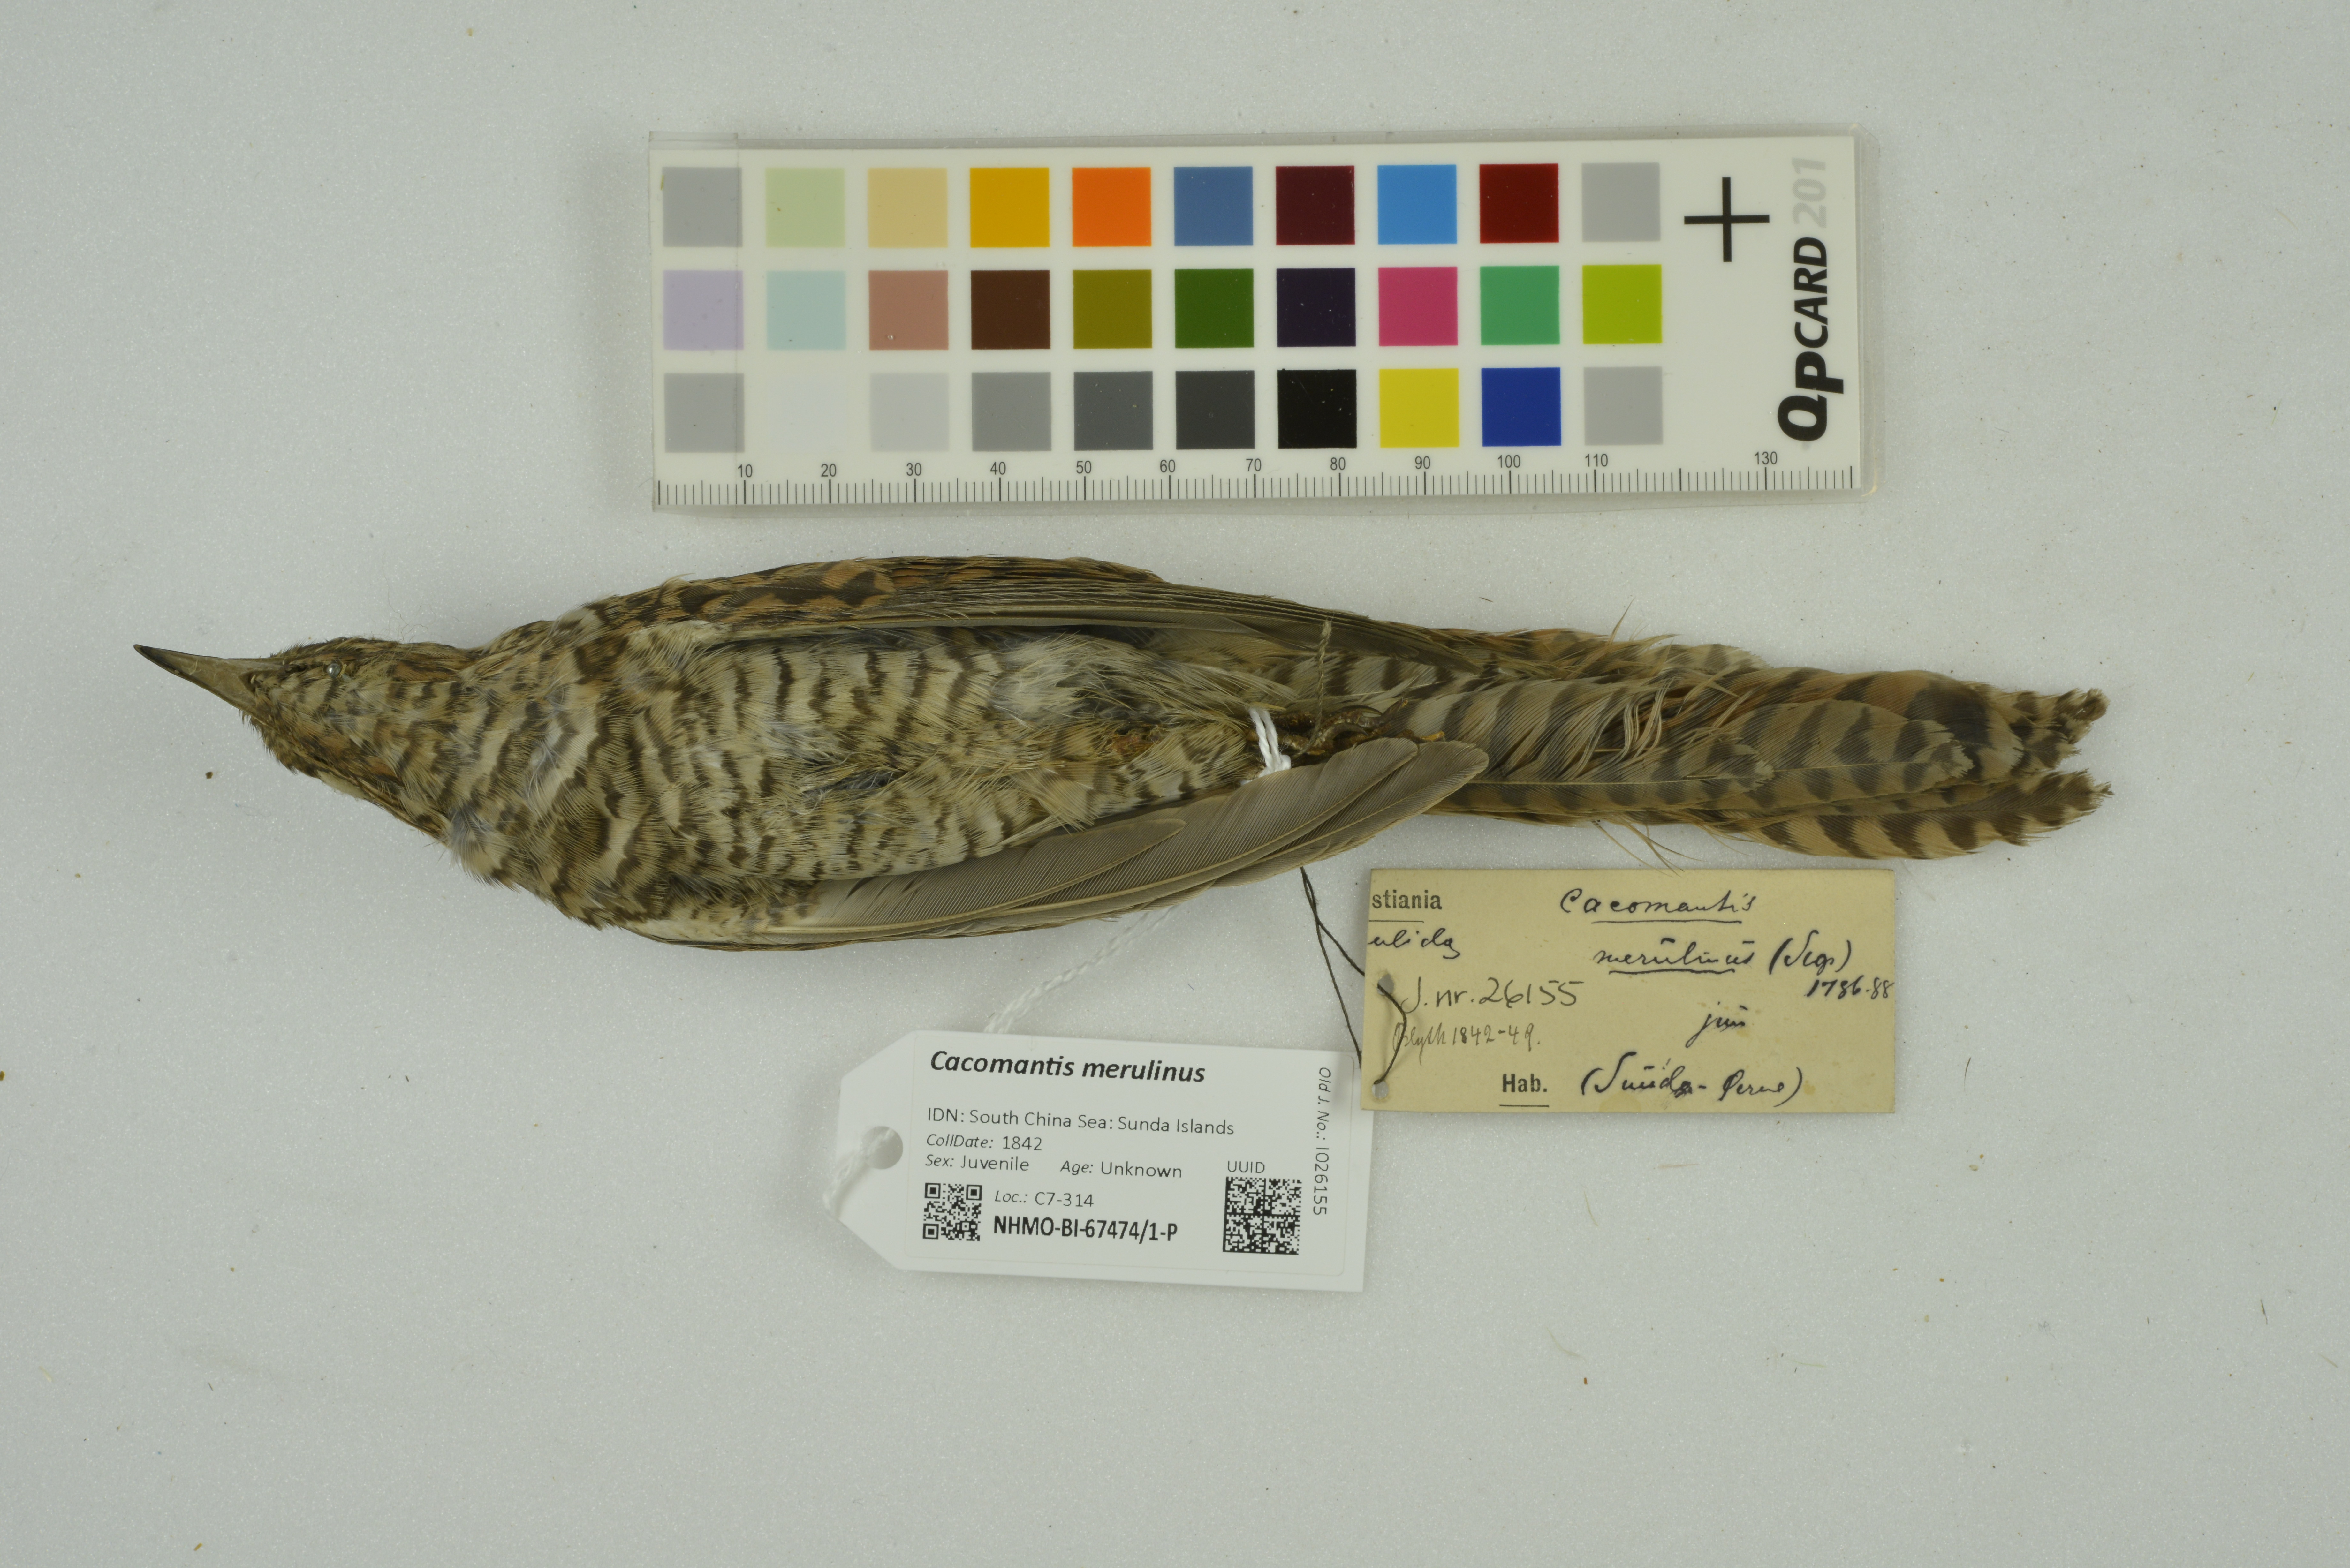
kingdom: Animalia
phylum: Chordata
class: Aves
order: Cuculiformes
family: Cuculidae
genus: Cacomantis
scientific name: Cacomantis merulinus
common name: Plaintive cuckoo
